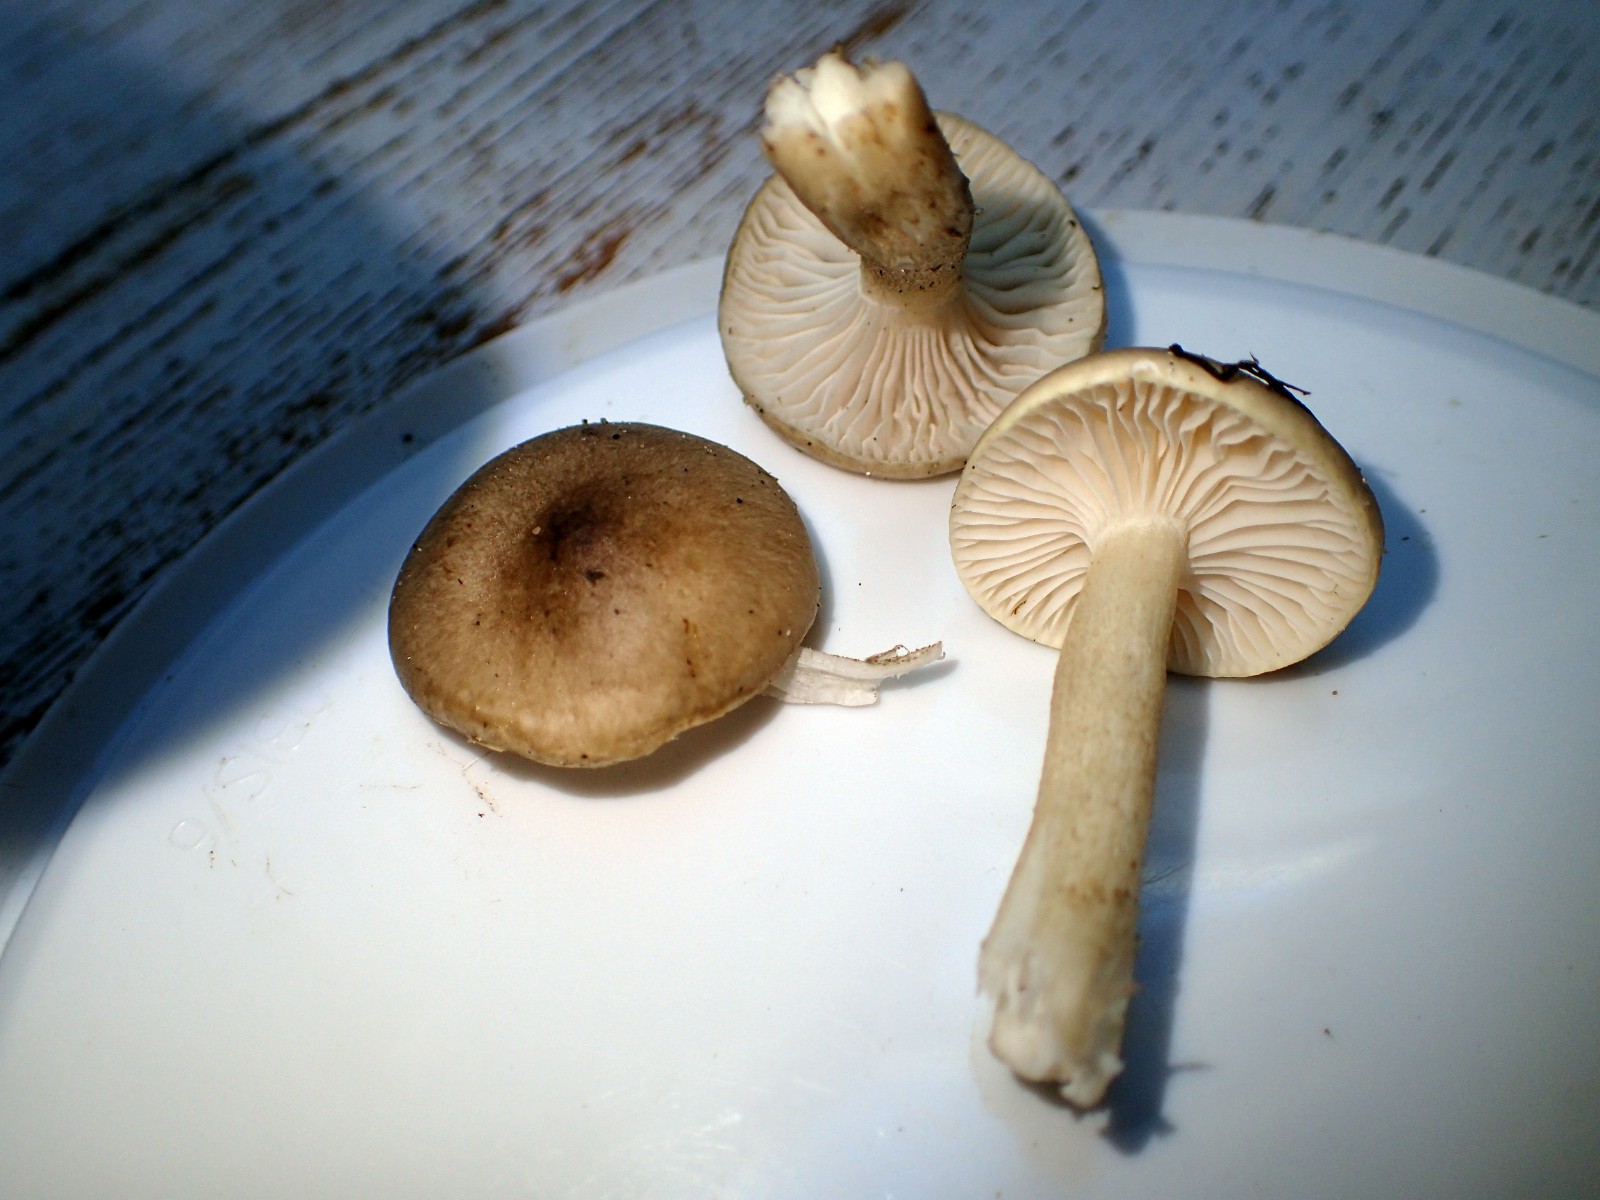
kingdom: Fungi
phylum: Basidiomycota
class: Agaricomycetes
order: Agaricales
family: Hygrophoraceae
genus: Hygrophorus
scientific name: Hygrophorus suaveolens
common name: parfumeret sneglehat
